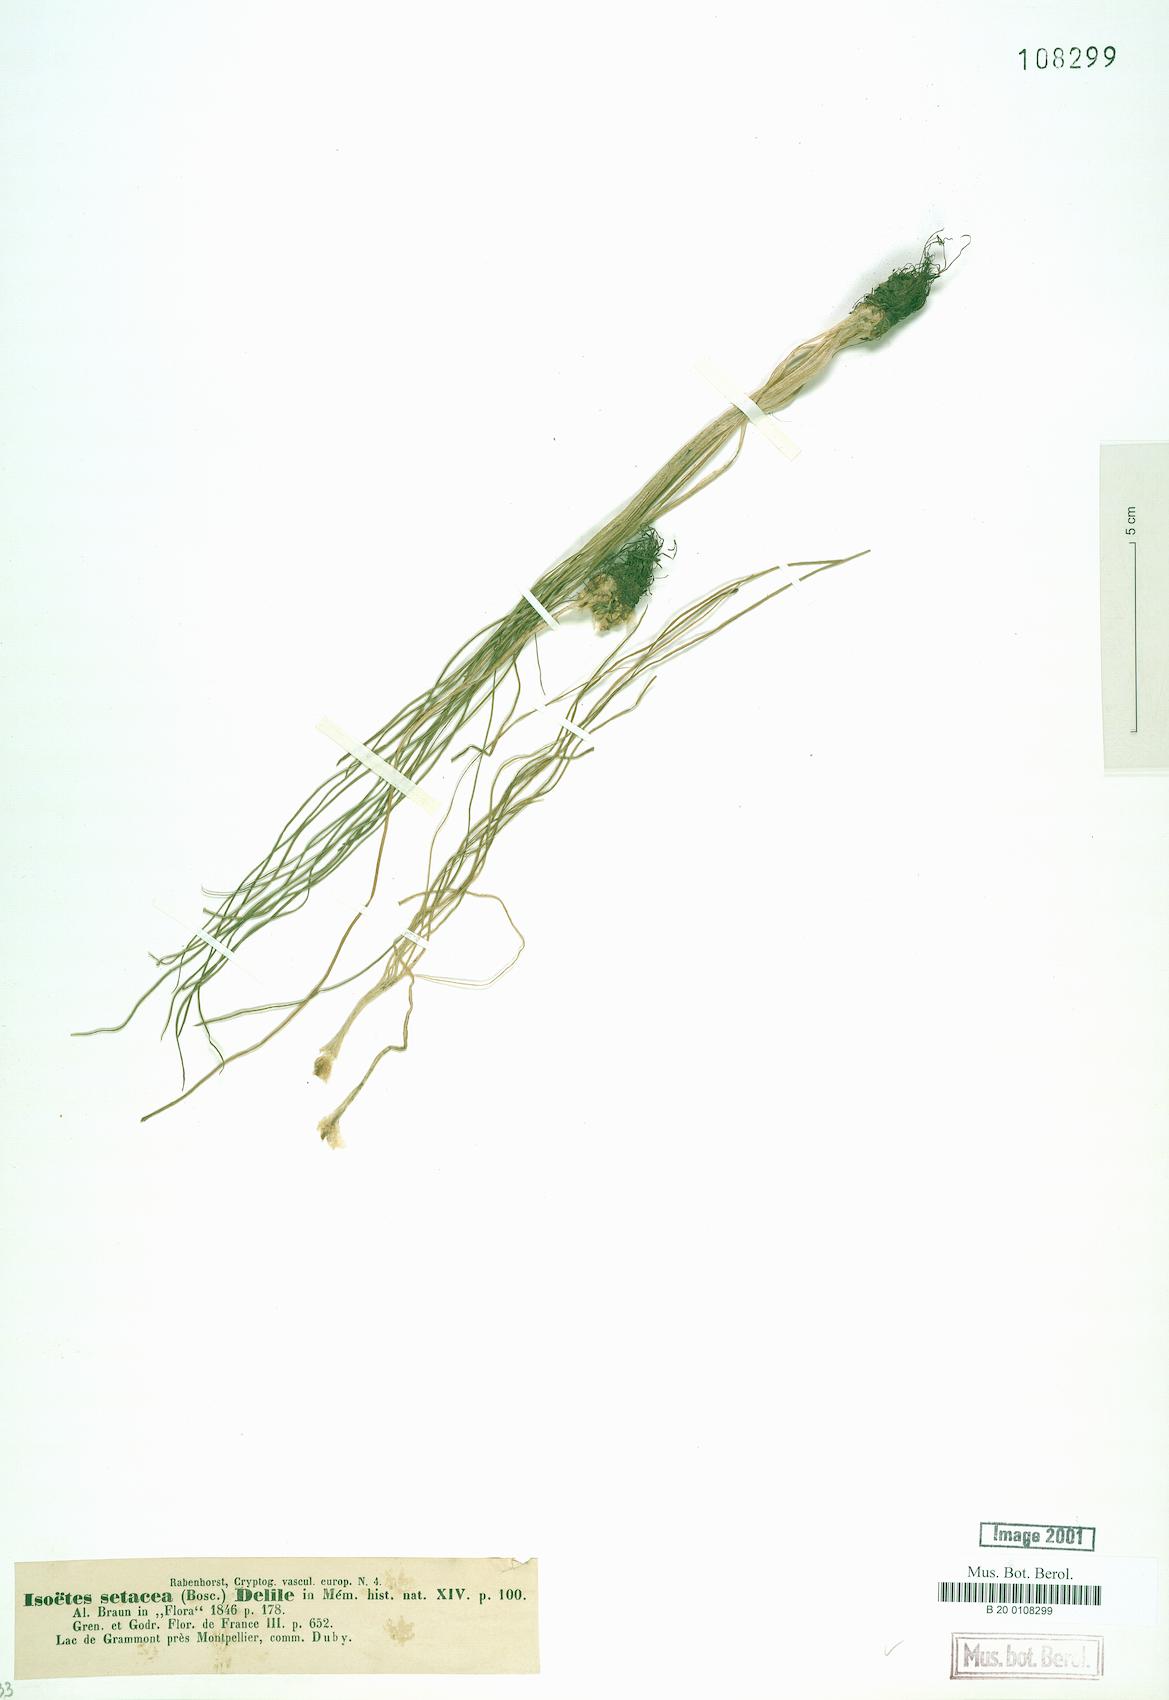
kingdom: Plantae
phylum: Tracheophyta
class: Lycopodiopsida
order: Isoetales
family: Isoetaceae
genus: Isoetes
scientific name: Isoetes lacustris
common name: Common quillwort
